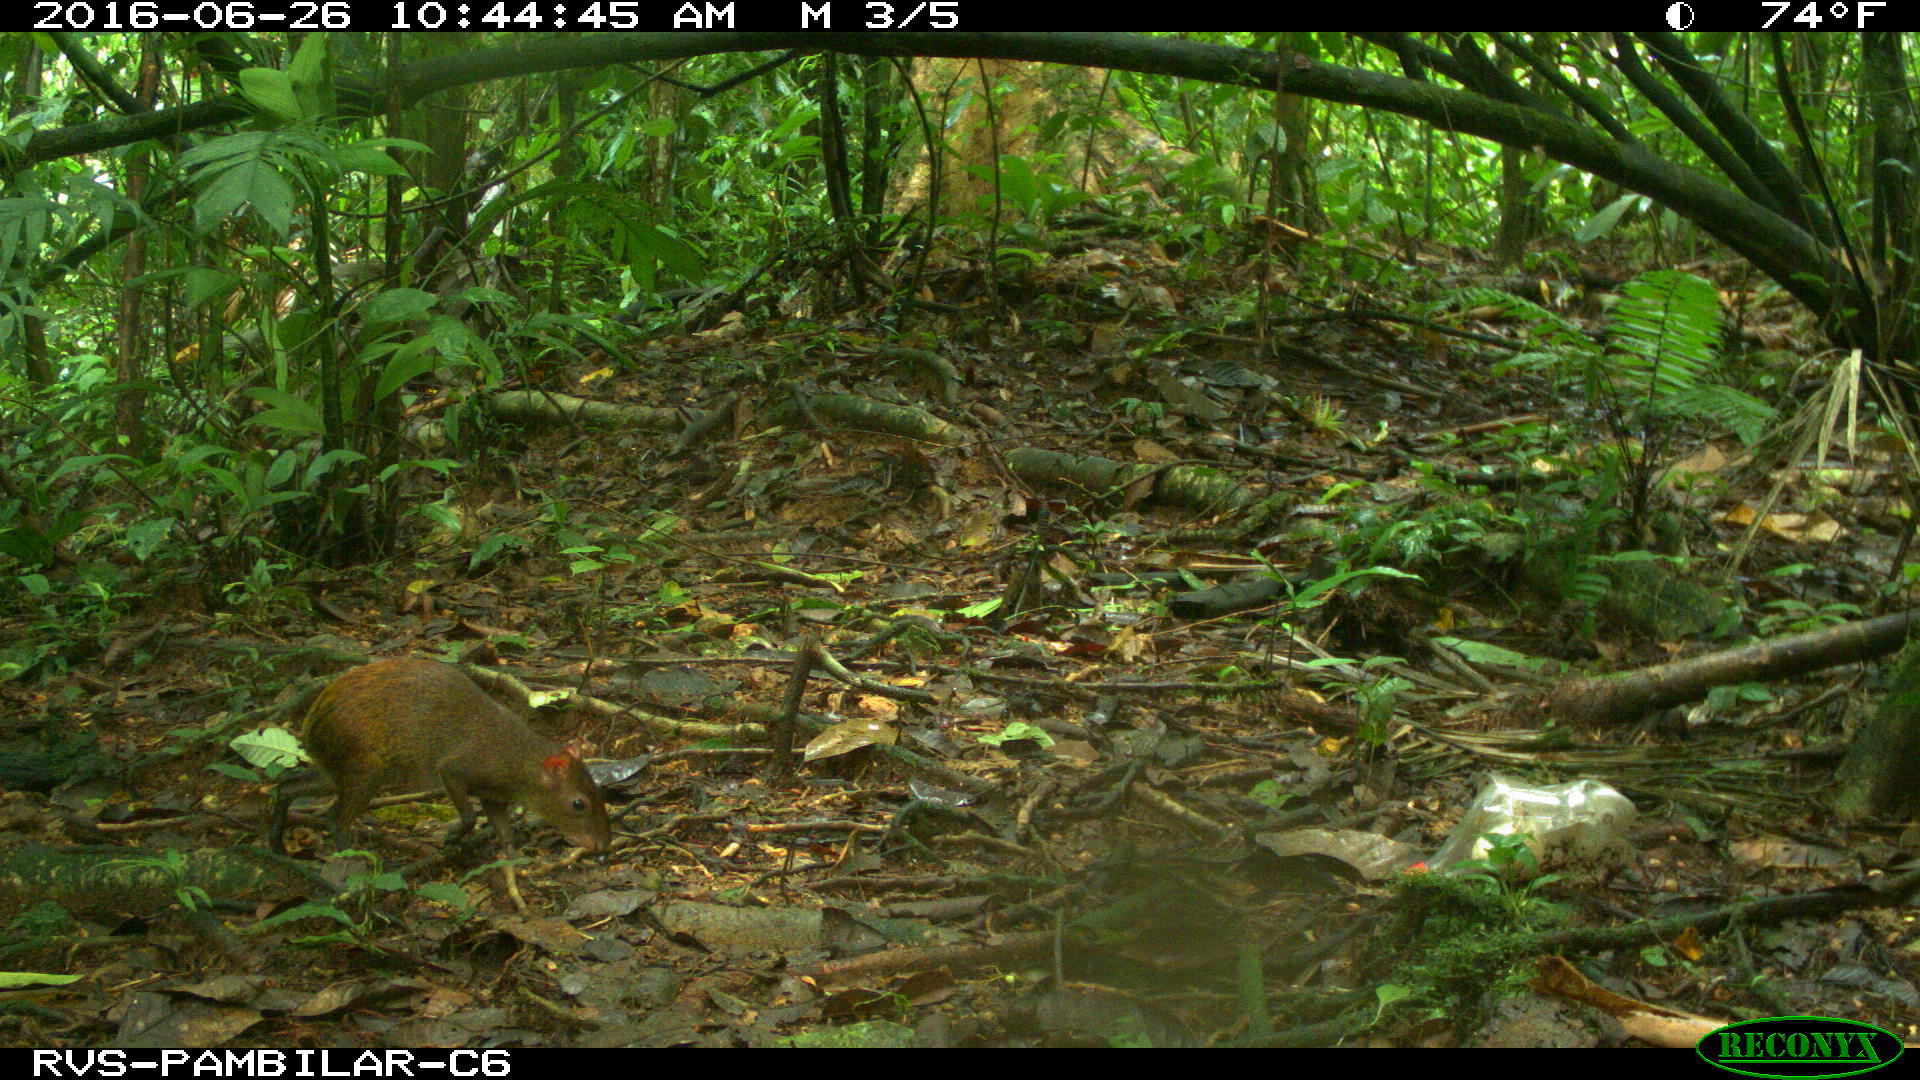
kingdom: Animalia
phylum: Chordata
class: Mammalia
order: Rodentia
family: Dasyproctidae
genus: Dasyprocta
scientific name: Dasyprocta punctata
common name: Central american agouti
